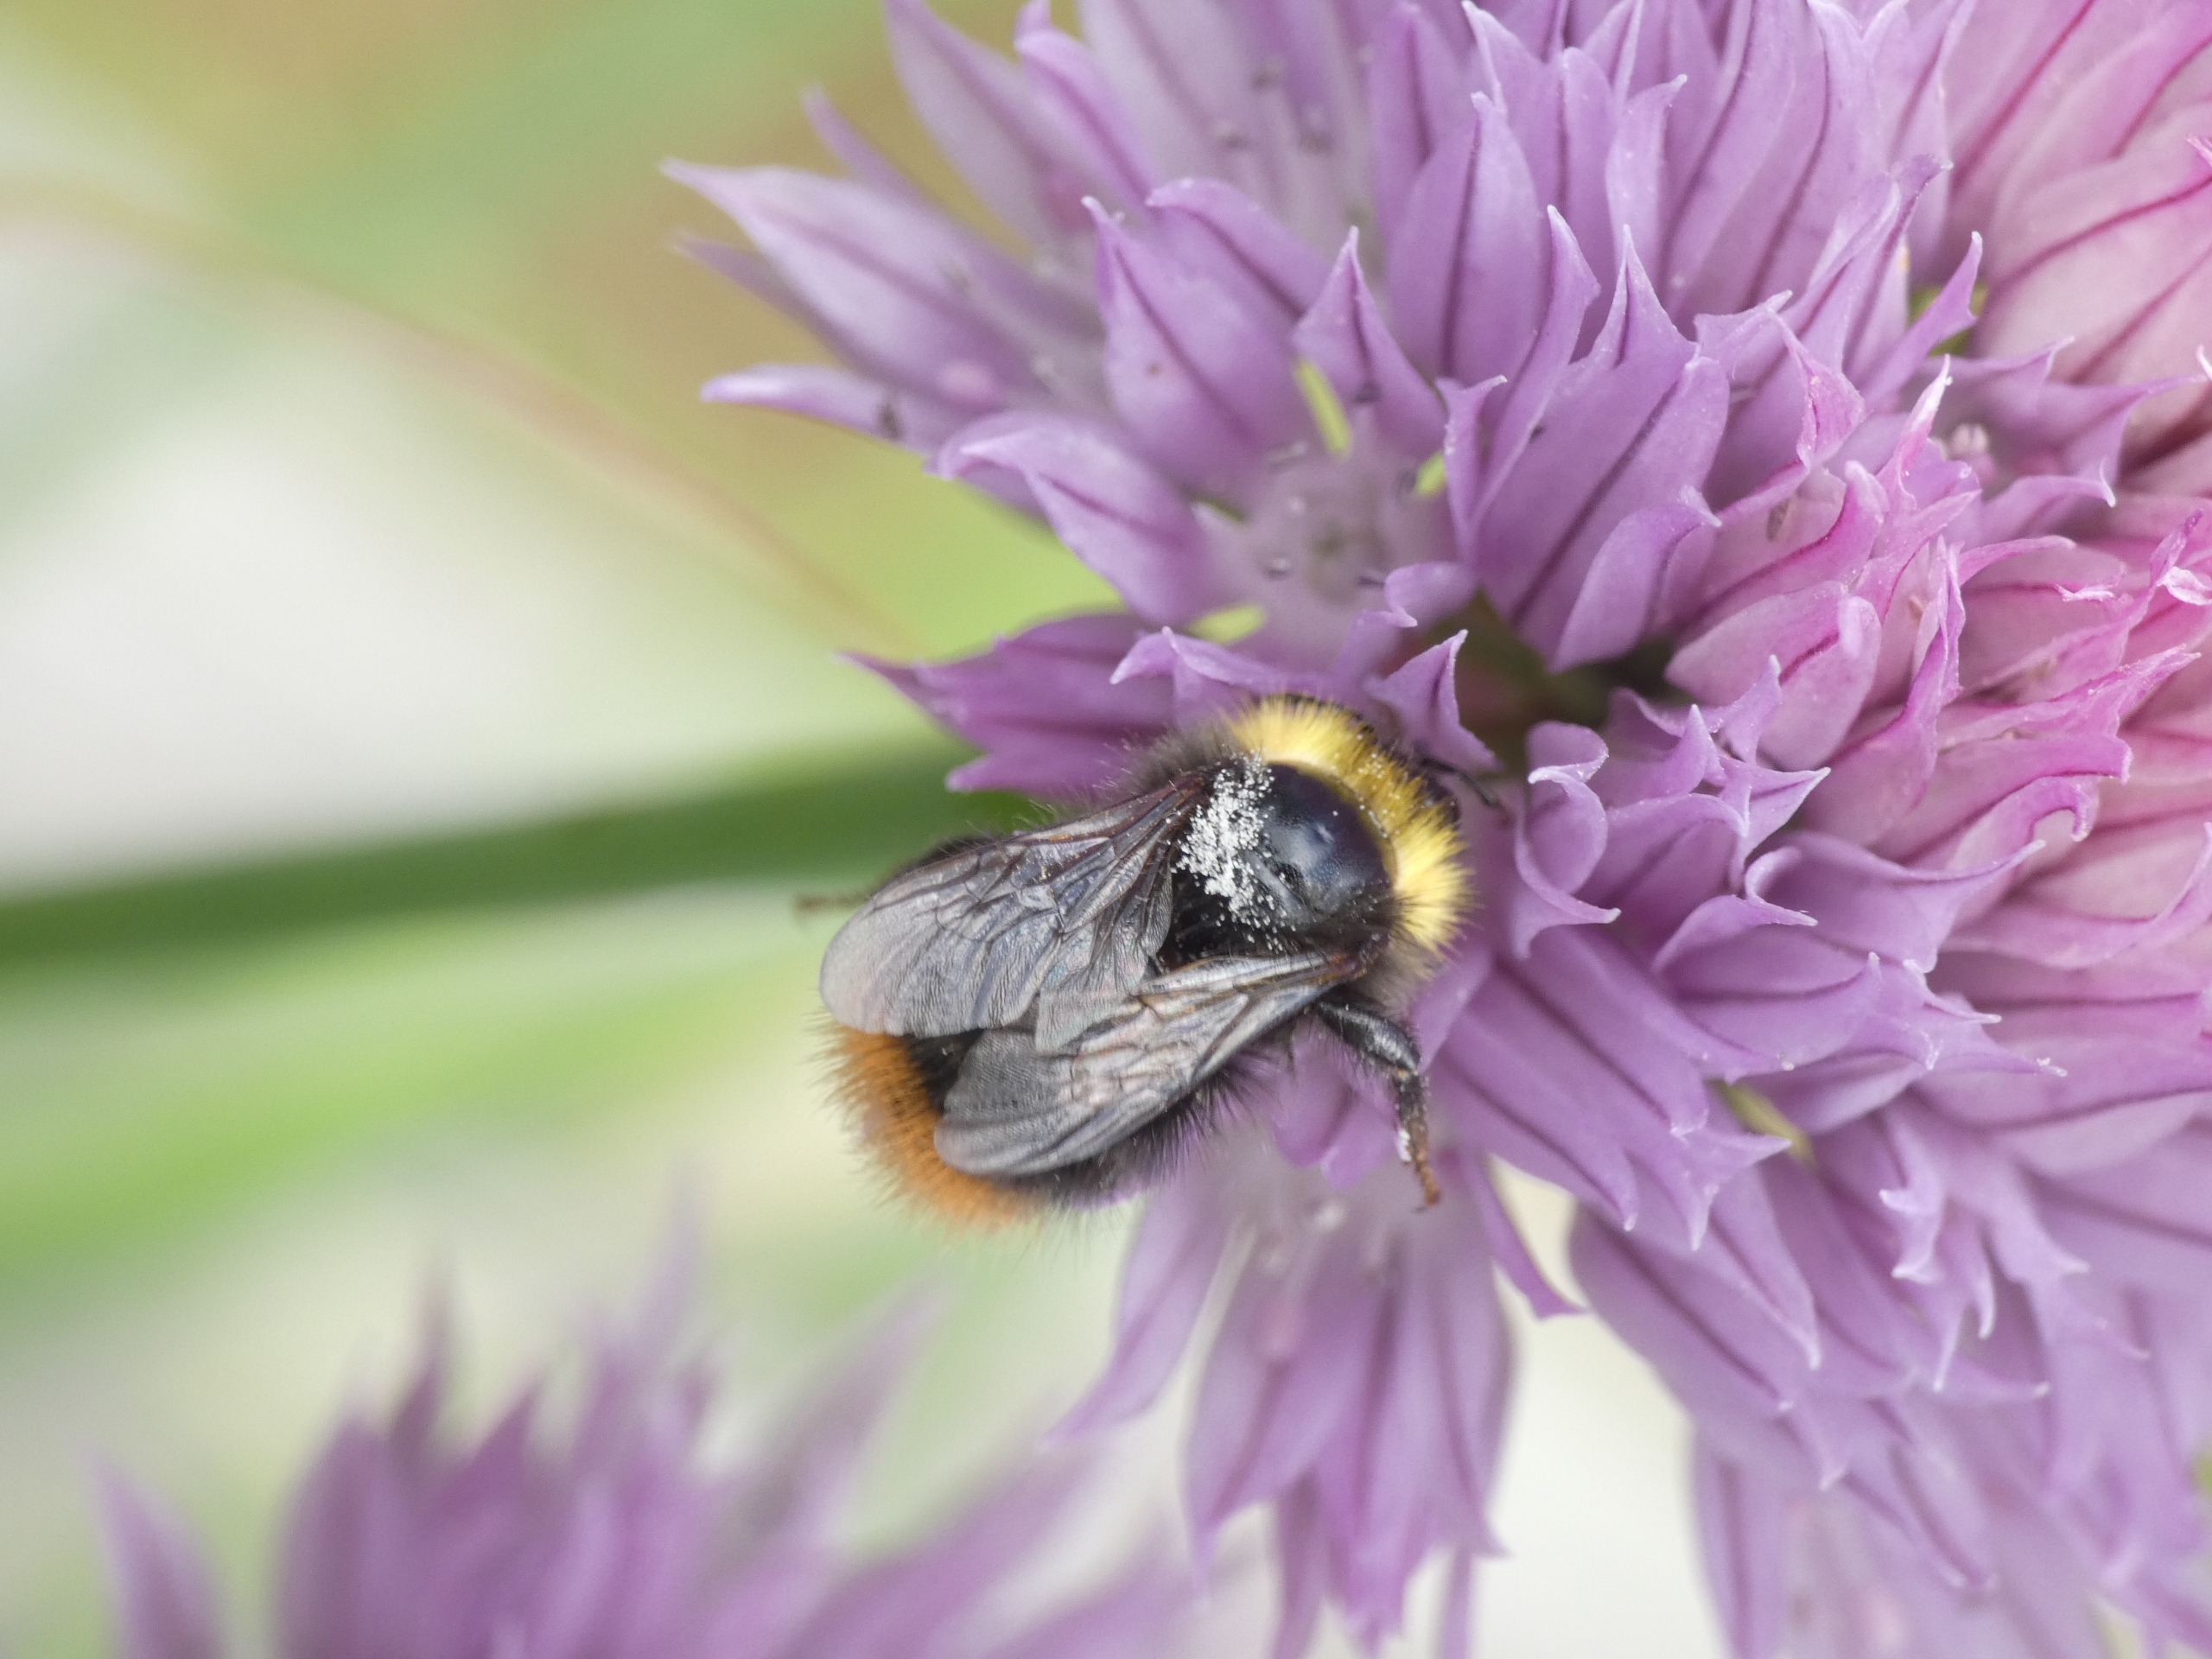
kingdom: Animalia
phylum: Arthropoda
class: Insecta
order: Hymenoptera
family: Apidae
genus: Bombus
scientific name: Bombus pratorum
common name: Lille skovhumle
